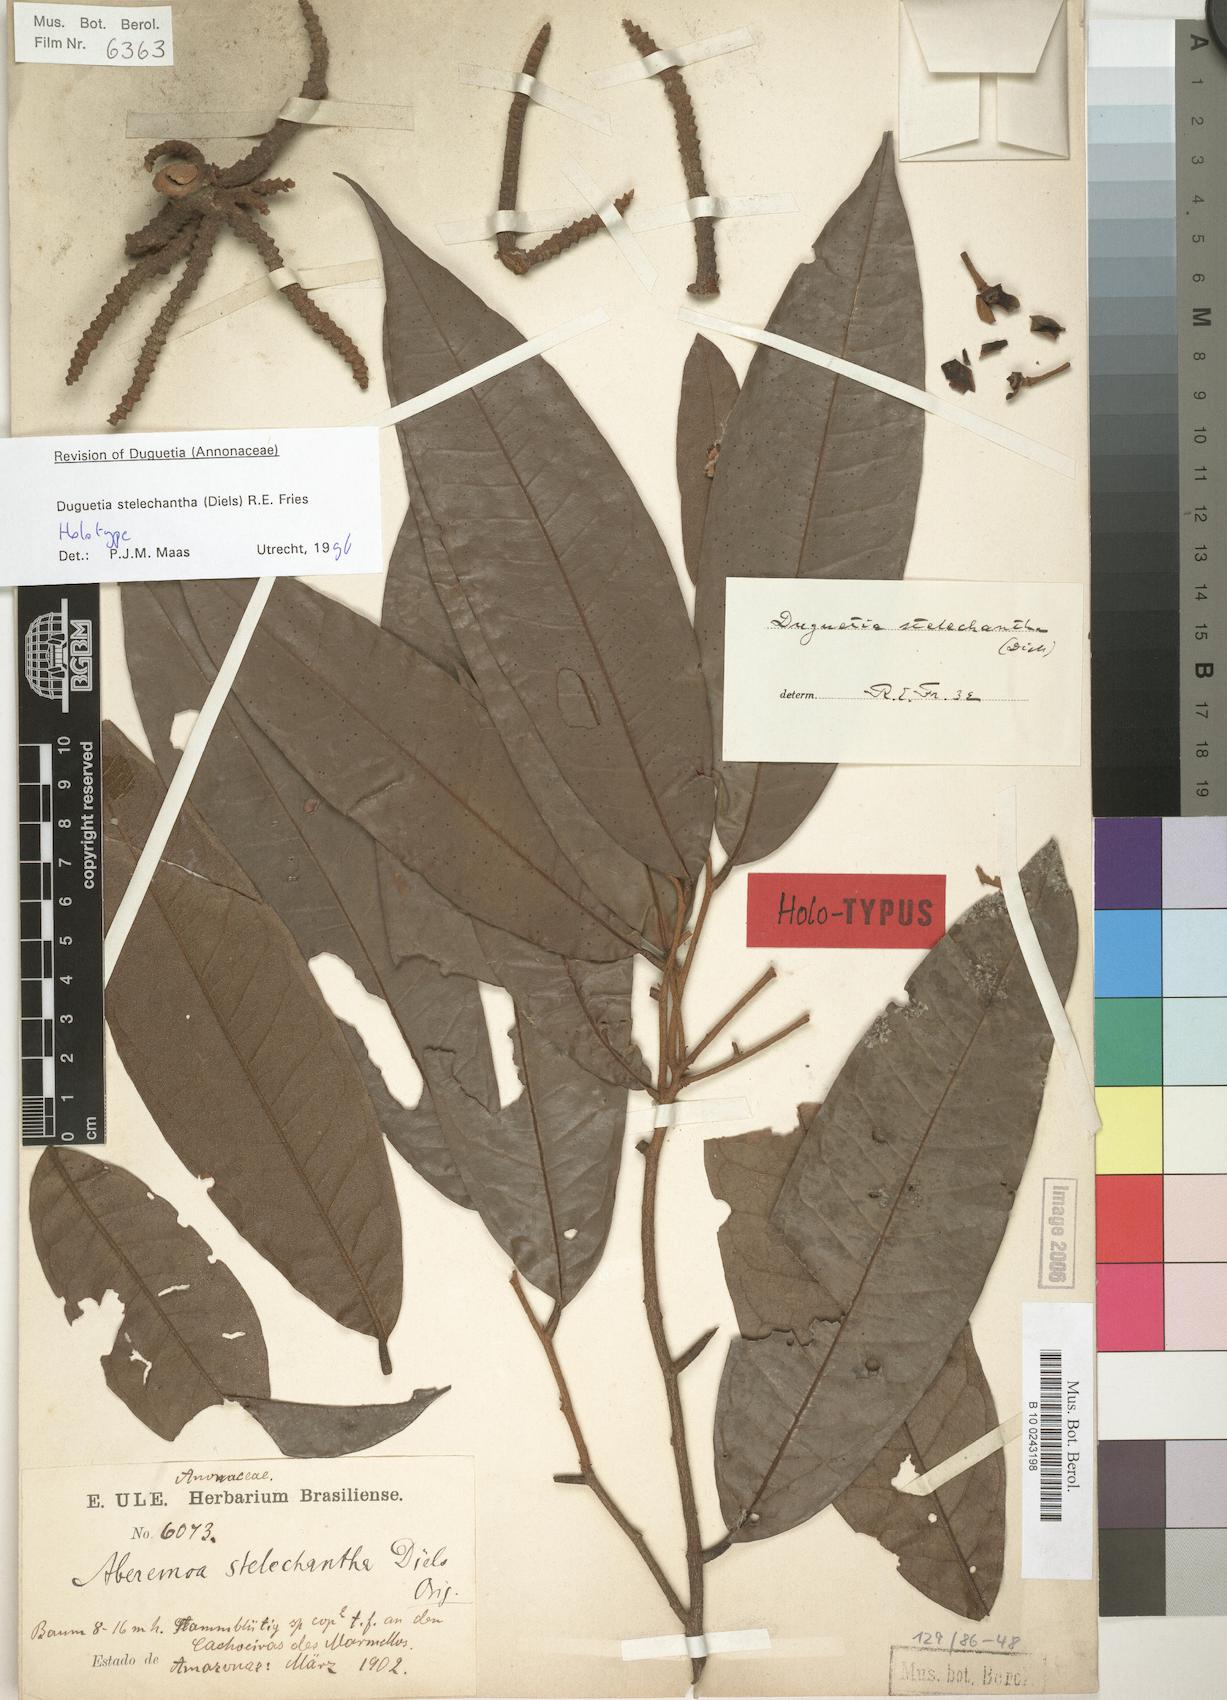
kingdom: Plantae
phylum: Tracheophyta
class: Magnoliopsida
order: Magnoliales
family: Annonaceae
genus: Duguetia
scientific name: Duguetia stelechantha
